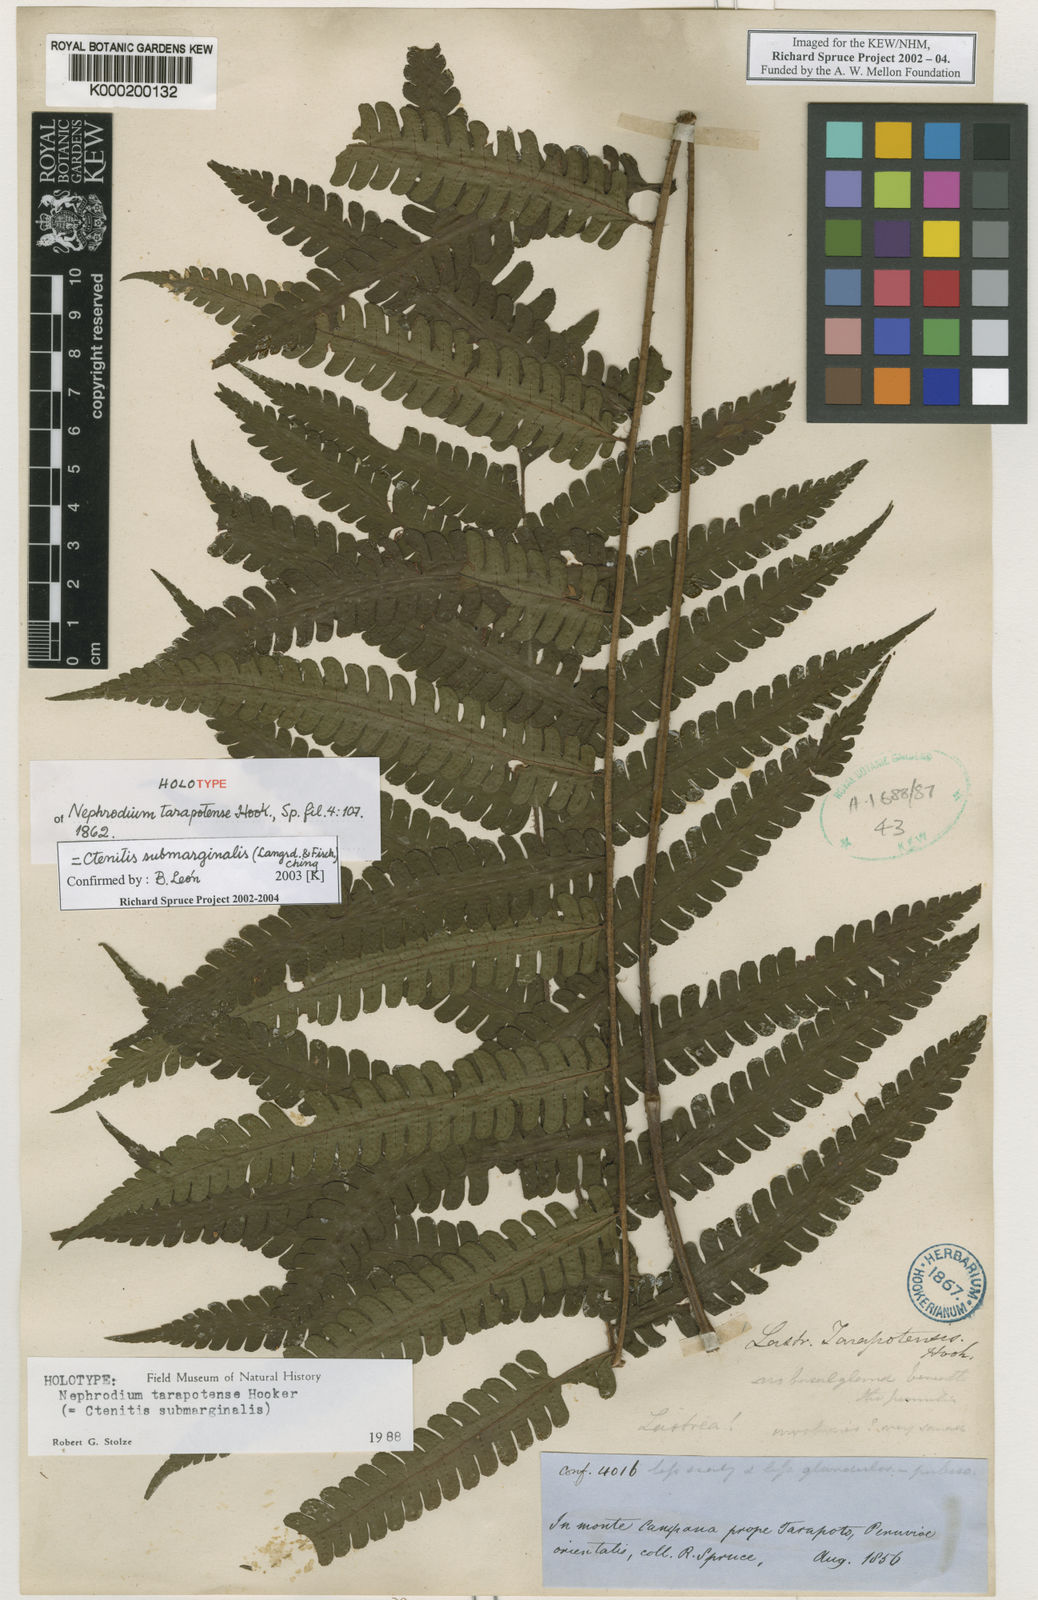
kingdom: Plantae
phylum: Tracheophyta
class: Polypodiopsida
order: Polypodiales
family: Dryopteridaceae
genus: Ctenitis
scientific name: Ctenitis submarginalis
